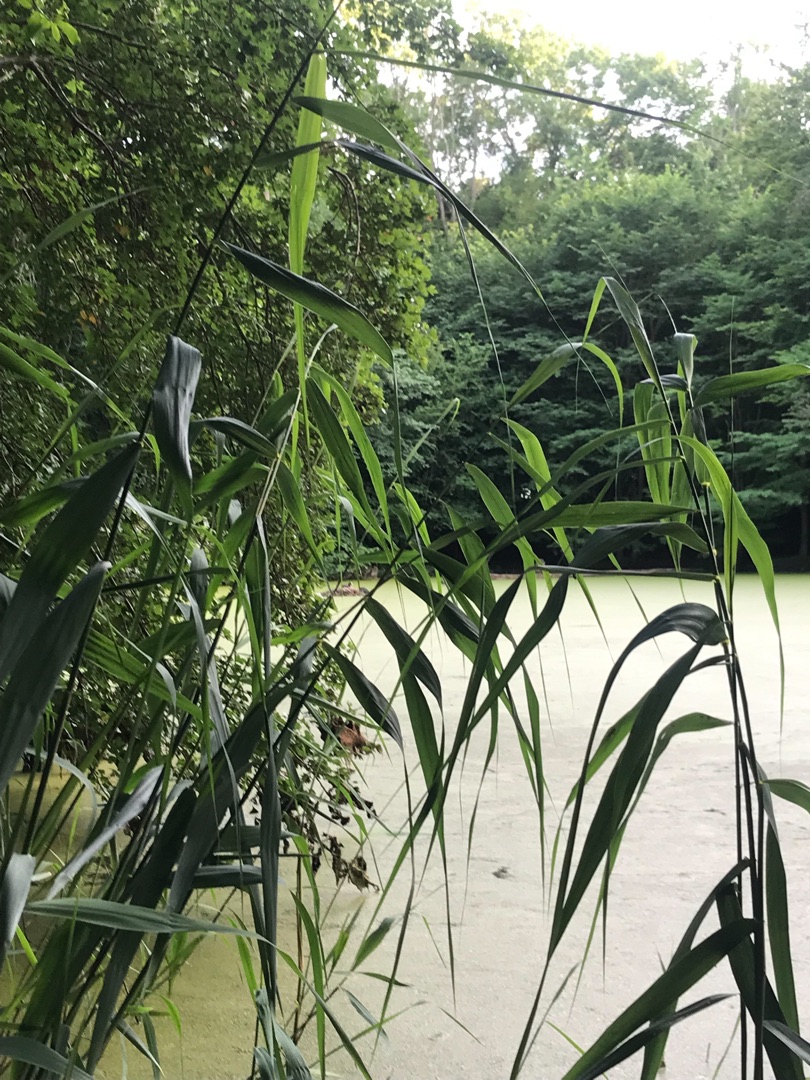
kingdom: Plantae
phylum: Tracheophyta
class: Liliopsida
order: Poales
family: Poaceae
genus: Phragmites
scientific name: Phragmites australis
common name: Tagrør
